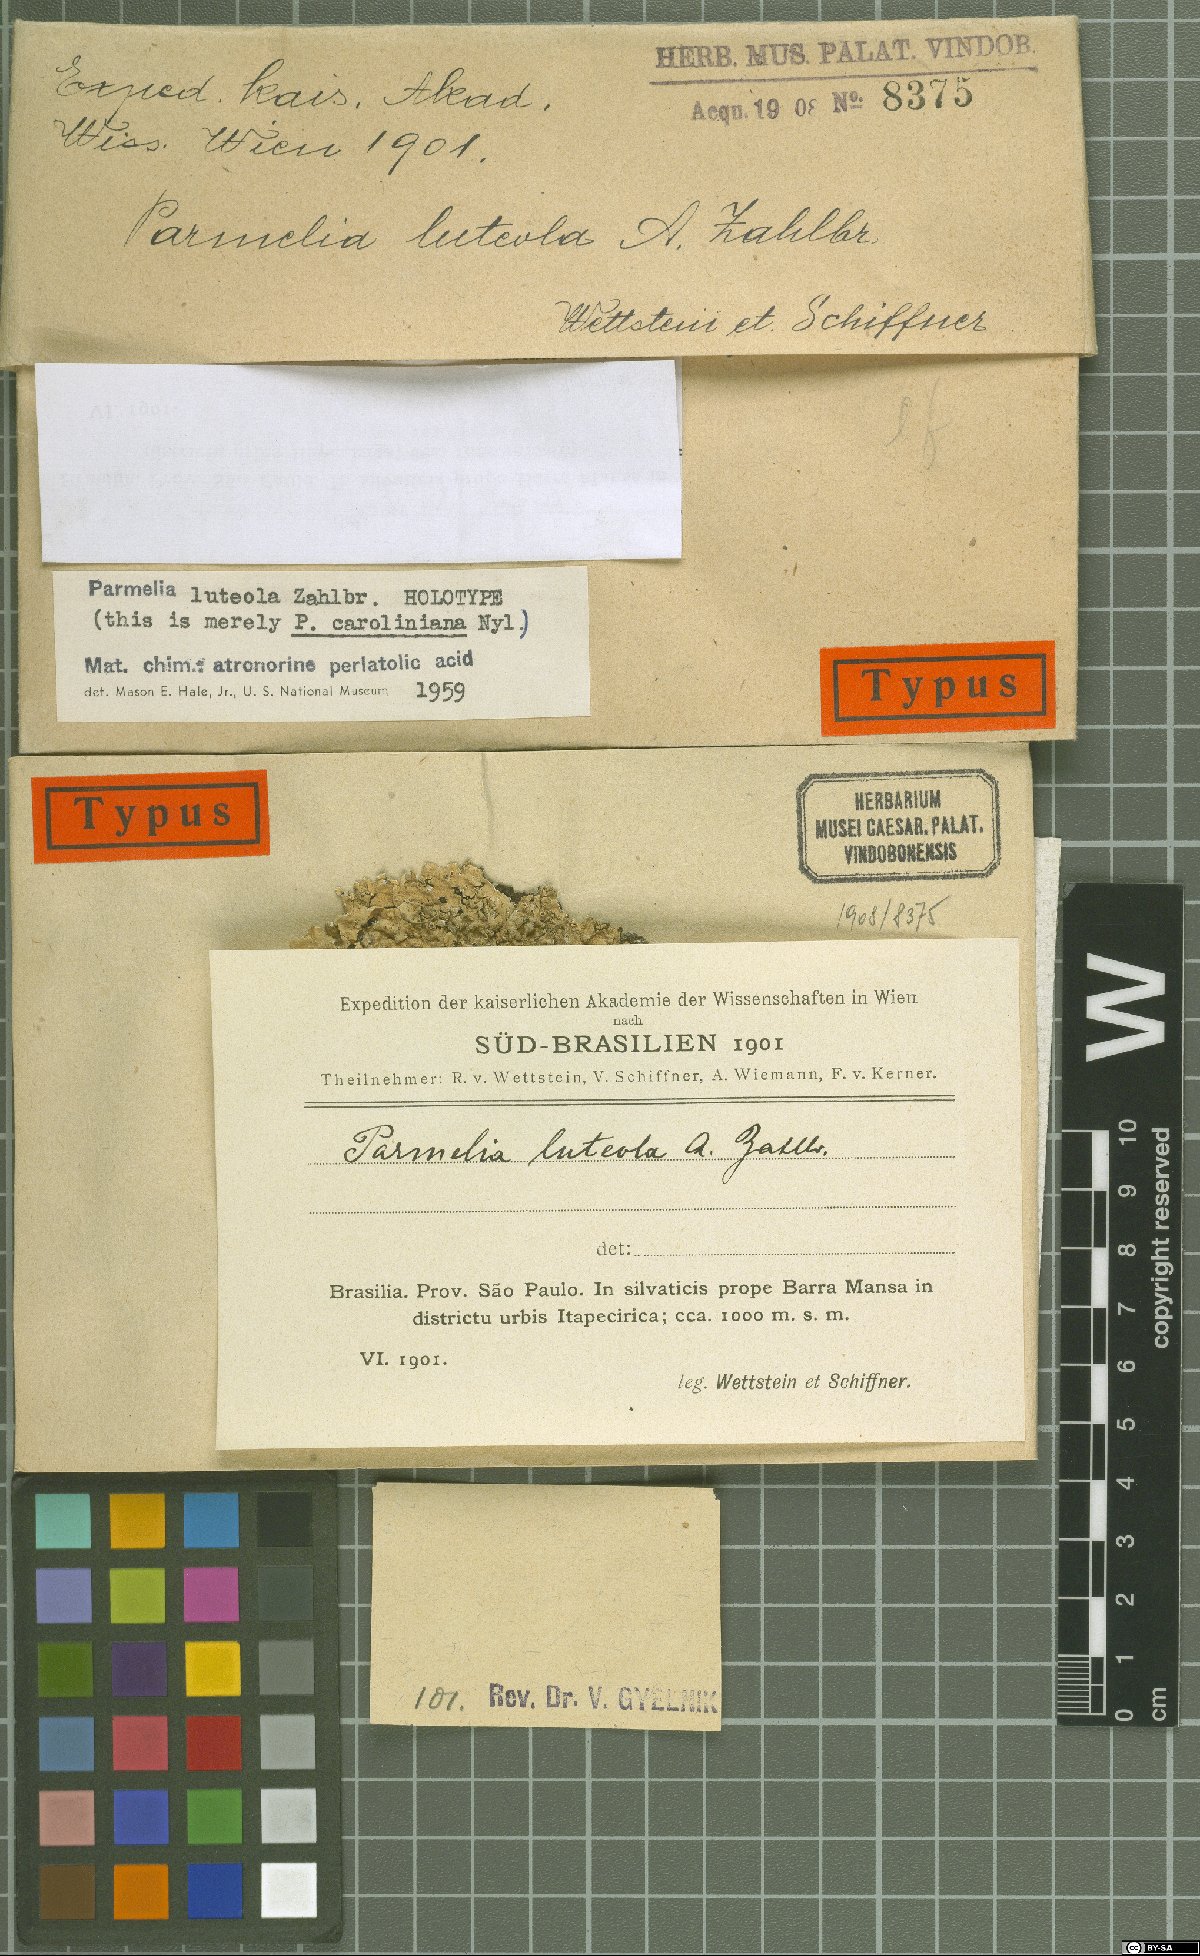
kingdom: Fungi
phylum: Ascomycota
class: Lecanoromycetes
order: Lecanorales
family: Parmeliaceae
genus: Parmelia
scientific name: Parmelia
